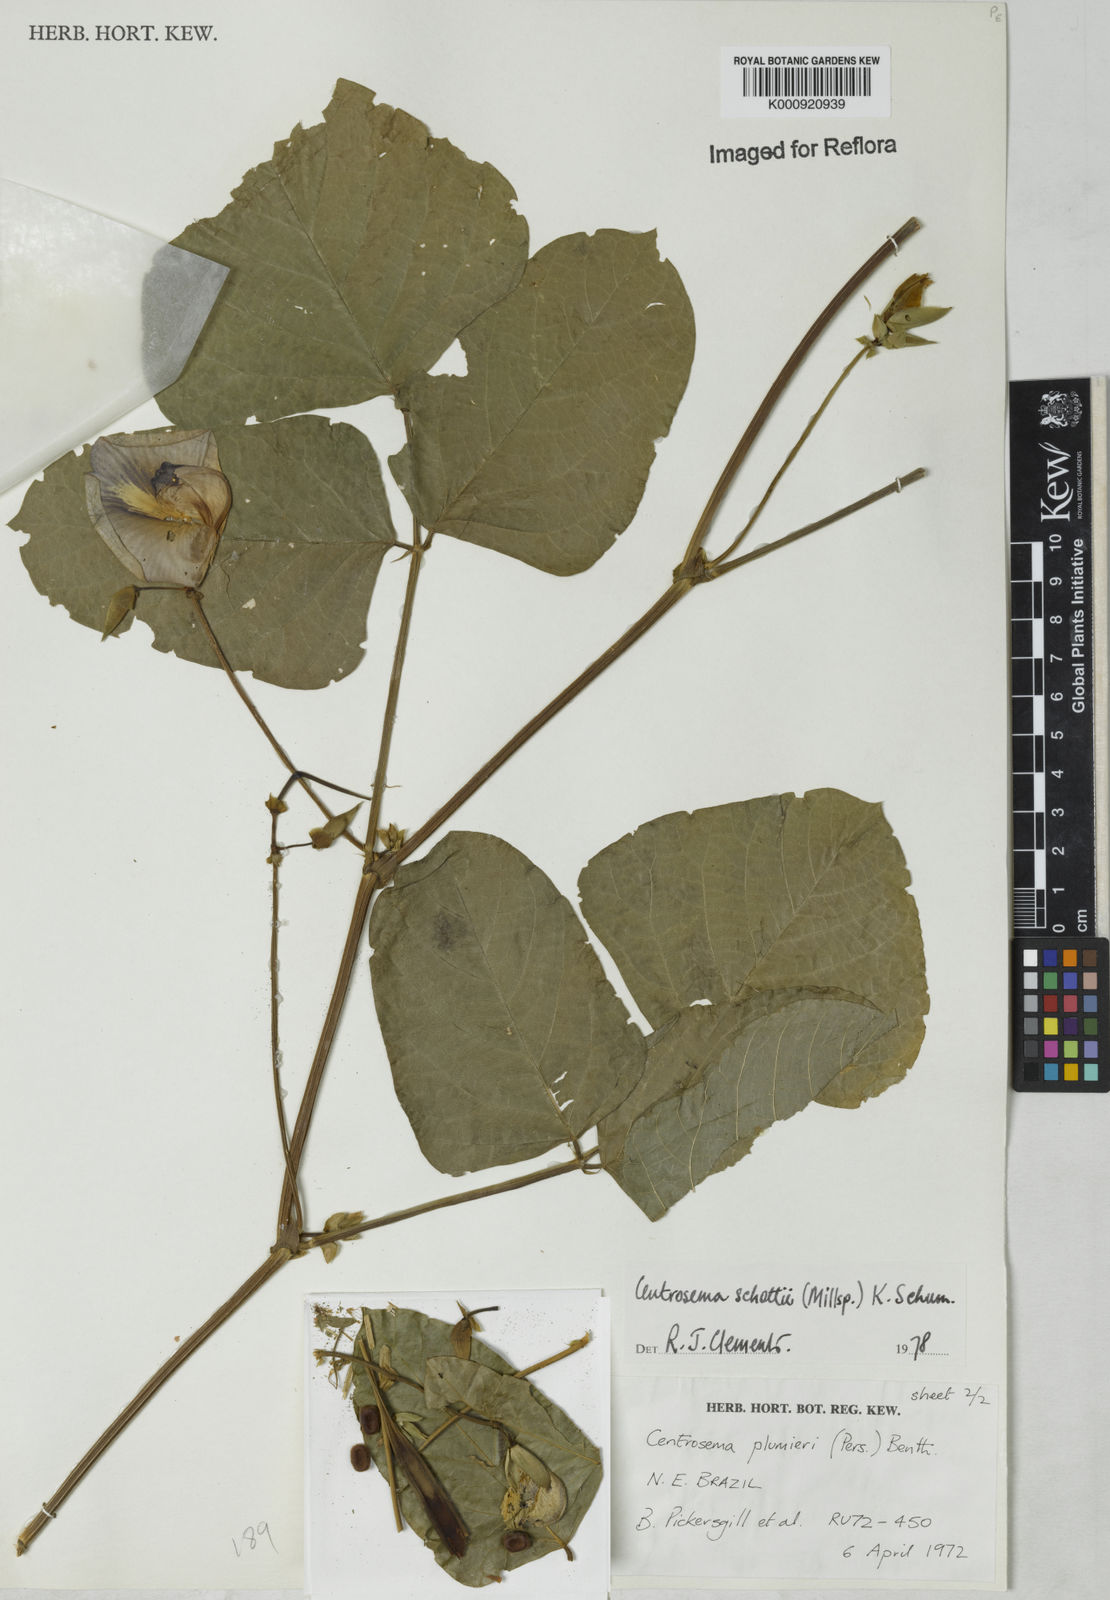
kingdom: Plantae
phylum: Tracheophyta
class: Magnoliopsida
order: Fabales
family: Fabaceae
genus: Centrosema
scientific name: Centrosema schottii
